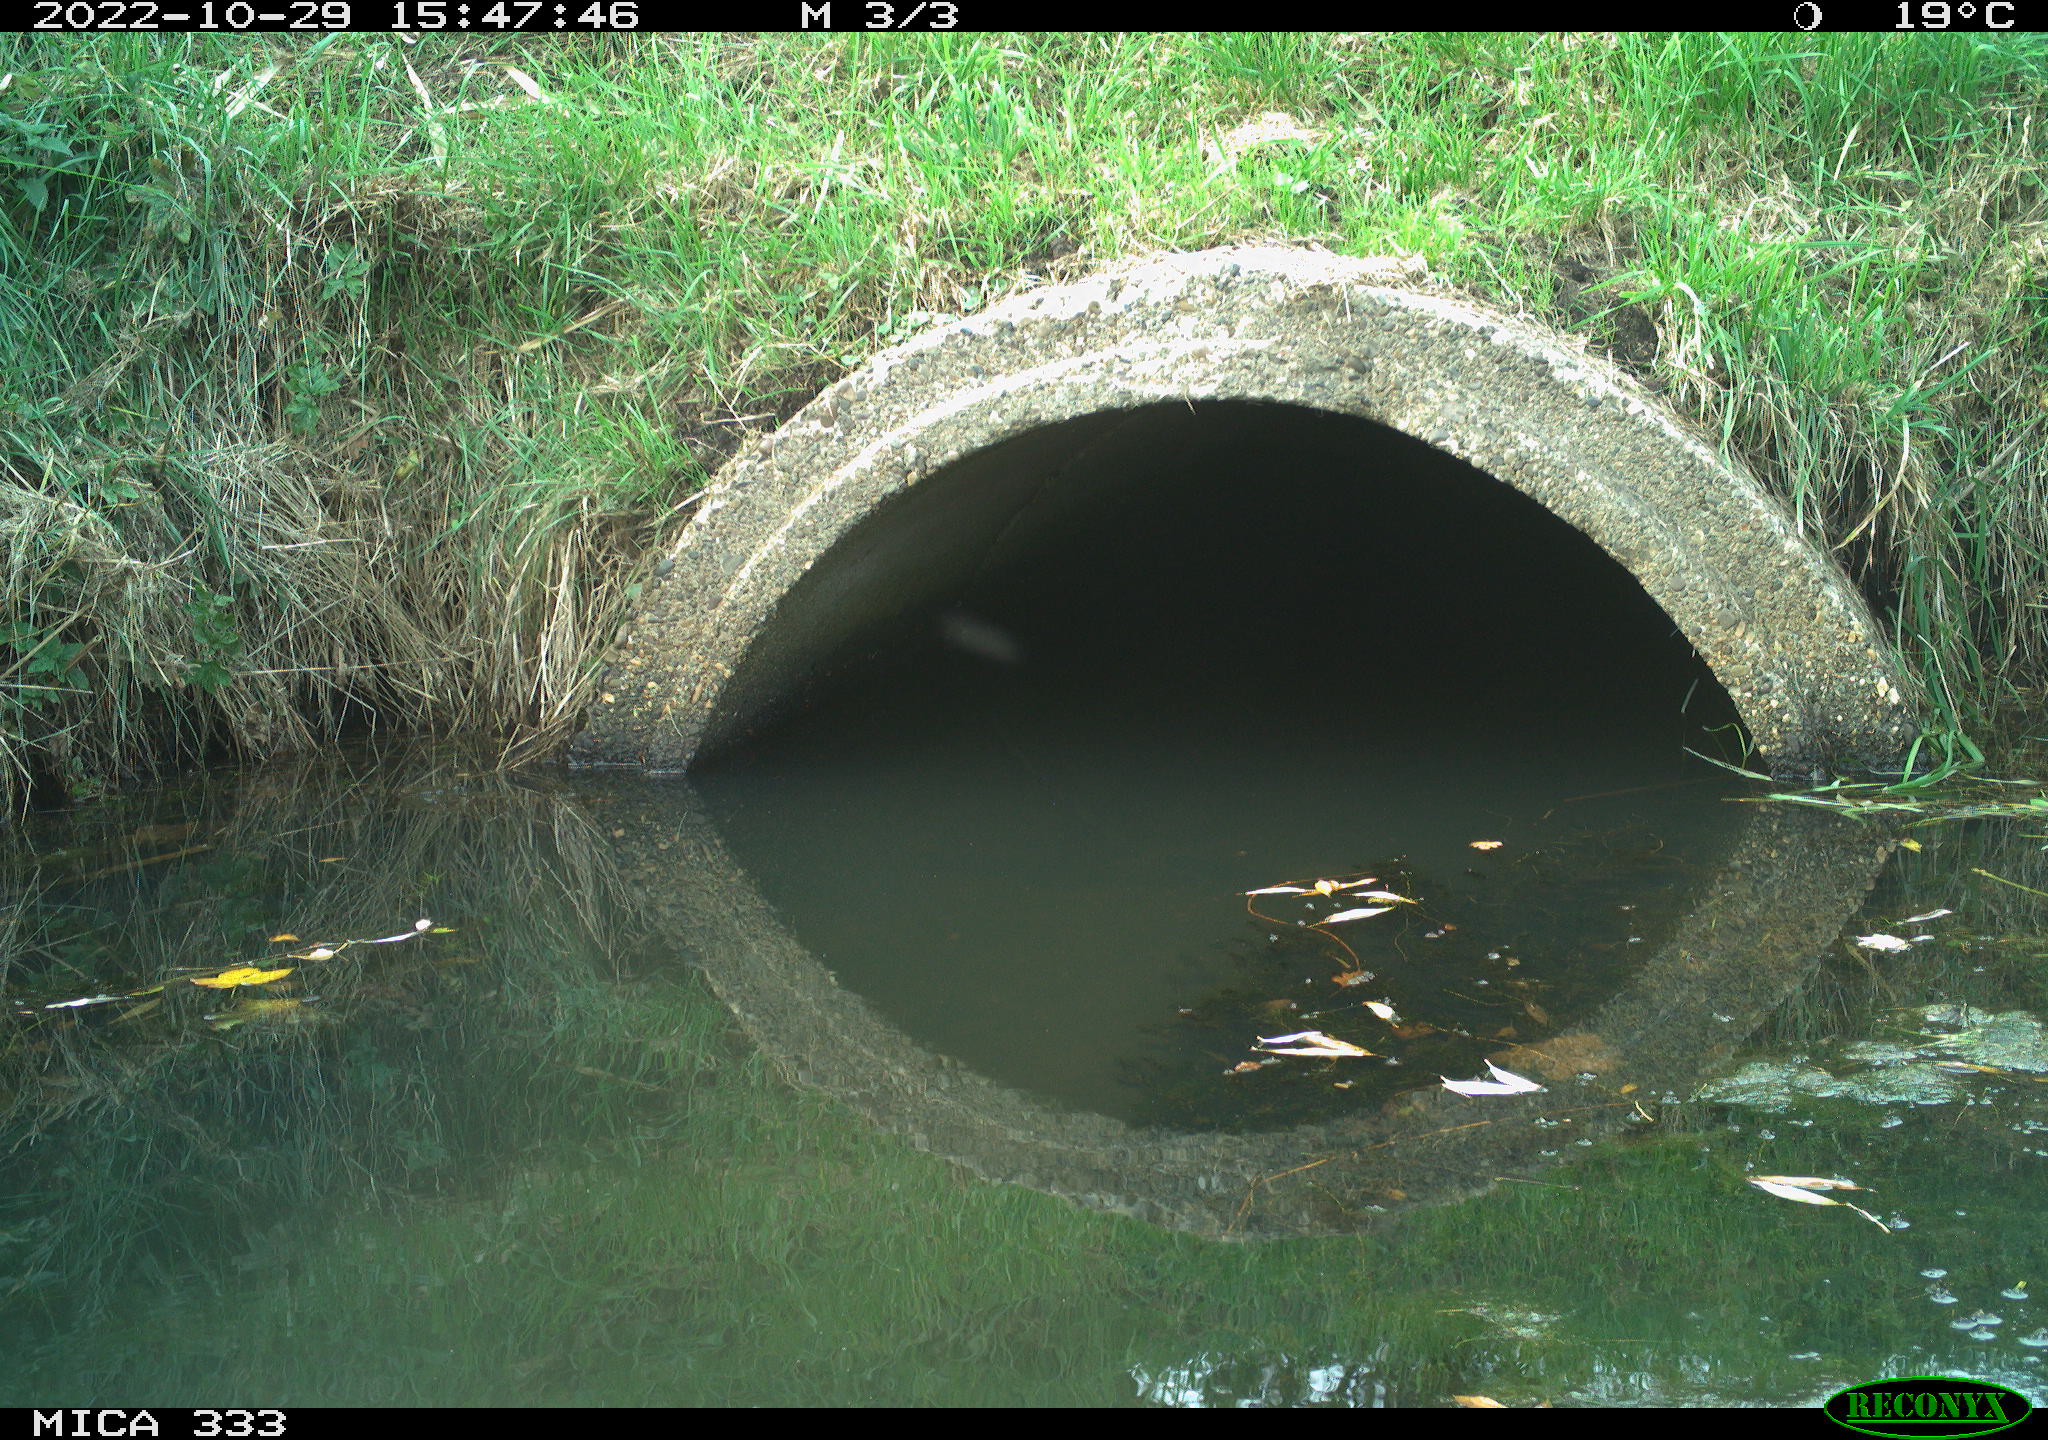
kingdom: Animalia
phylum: Chordata
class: Aves
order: Passeriformes
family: Paridae
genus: Parus
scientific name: Parus major
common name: Great tit
